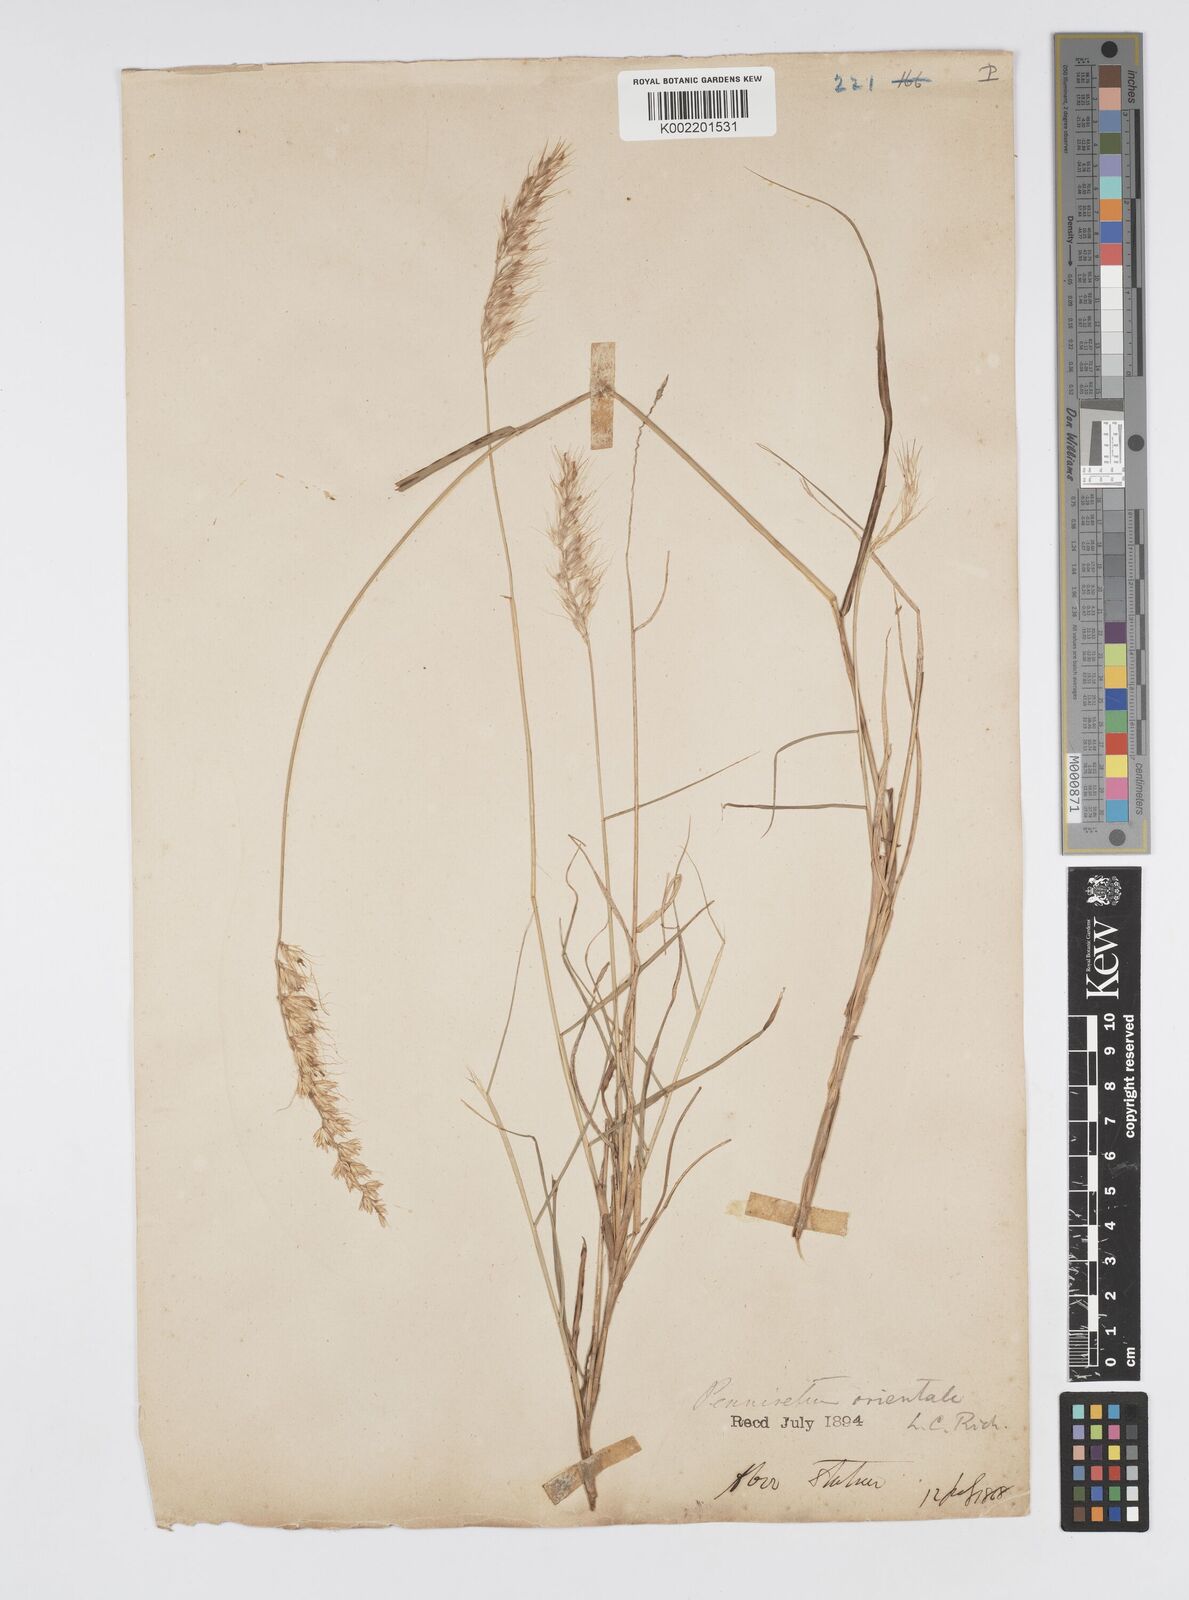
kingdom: Plantae
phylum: Tracheophyta
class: Liliopsida
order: Poales
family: Poaceae
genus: Cenchrus
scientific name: Cenchrus orientalis
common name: Oriental fountain grass
